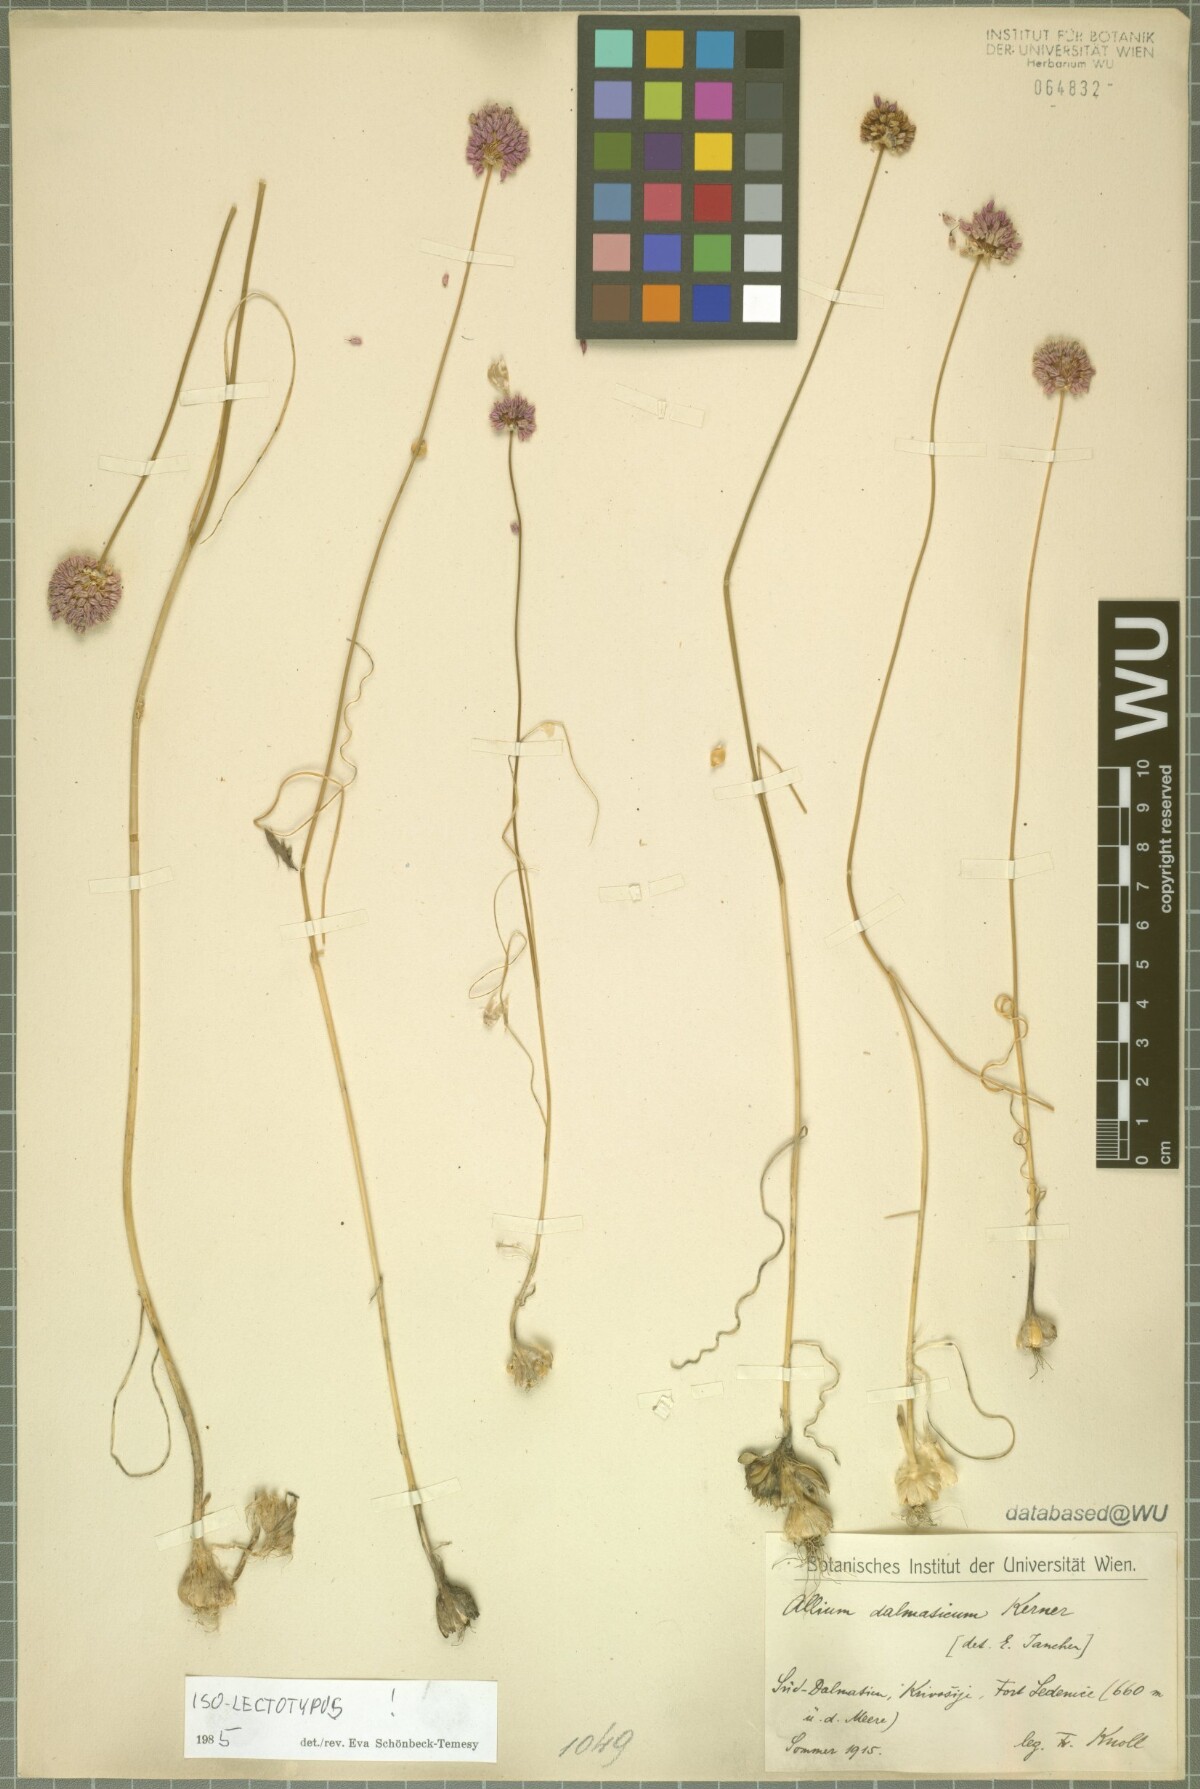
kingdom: Plantae
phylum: Tracheophyta
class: Liliopsida
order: Asparagales
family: Amaryllidaceae
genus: Allium
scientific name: Allium guttatum
